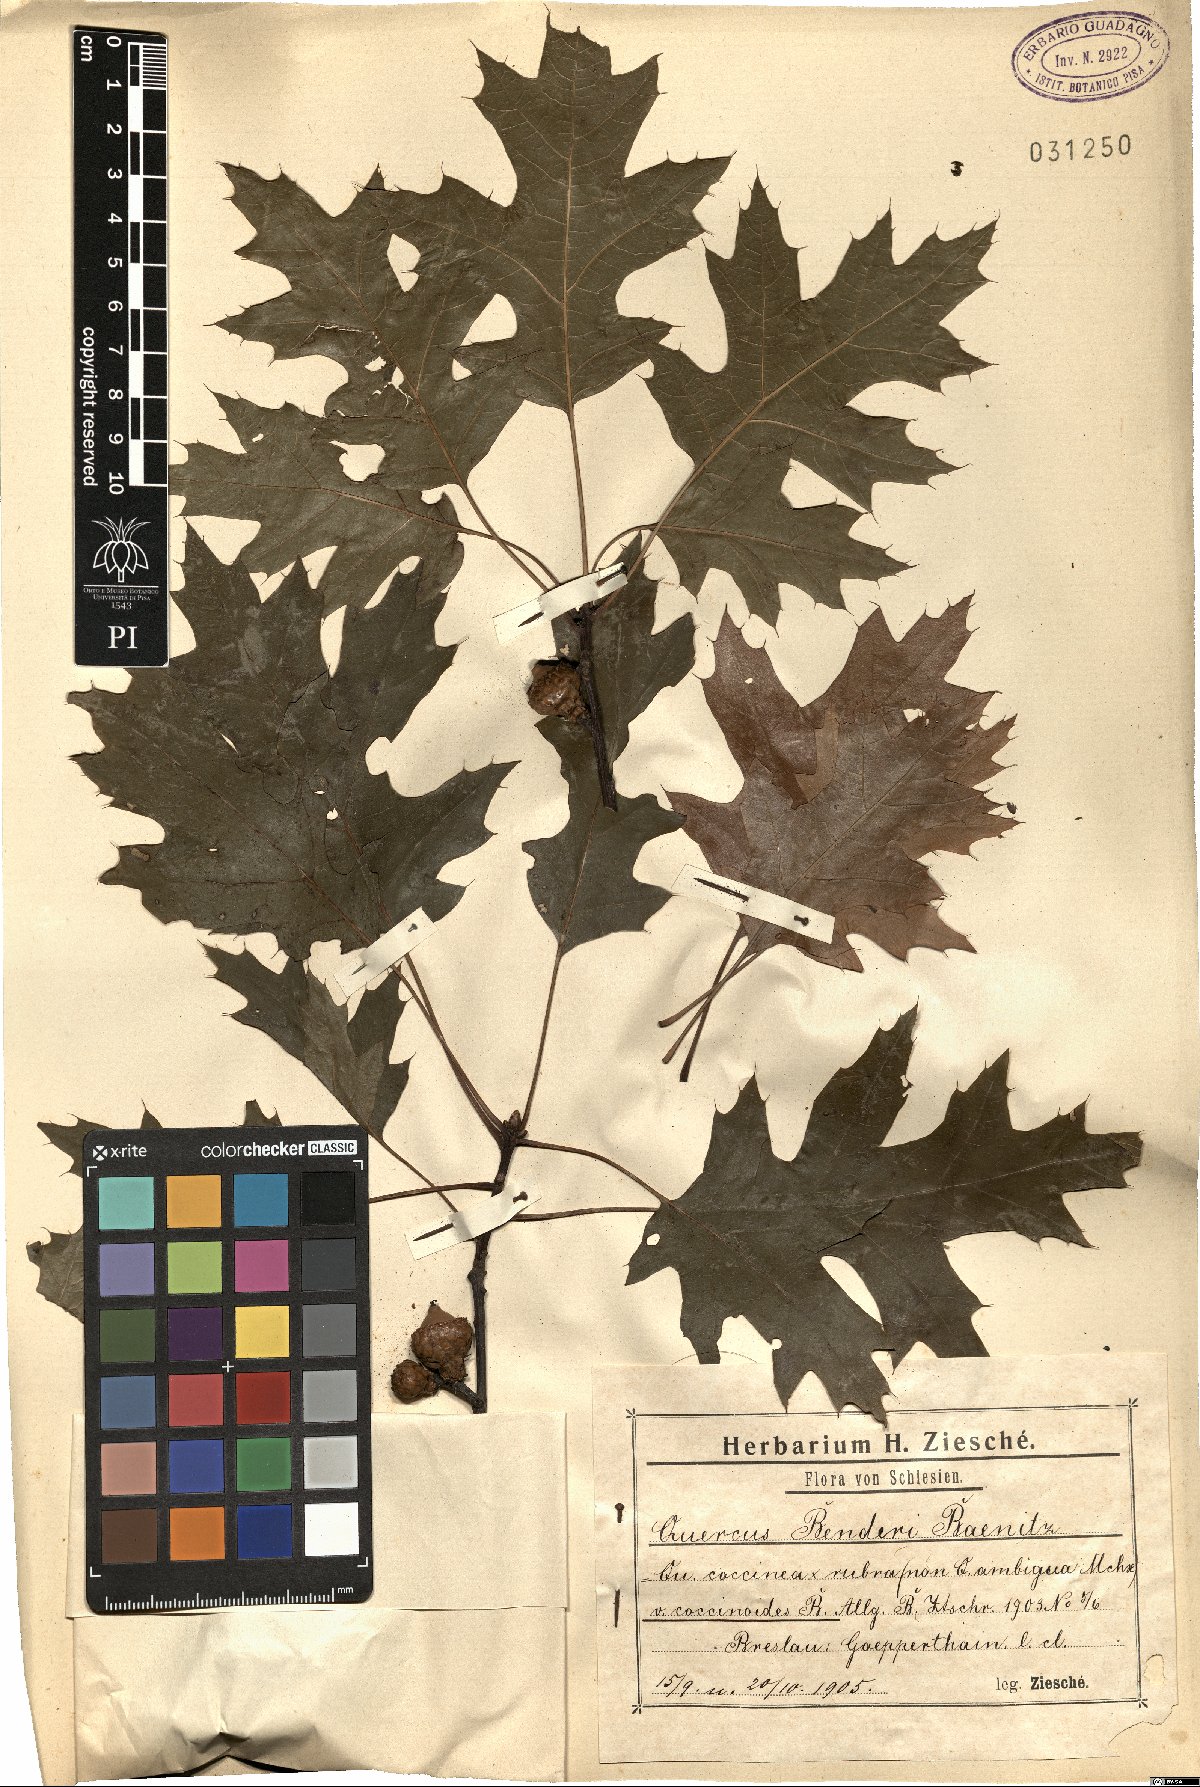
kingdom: Plantae
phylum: Tracheophyta
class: Magnoliopsida
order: Fagales
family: Fagaceae
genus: Quercus
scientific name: Quercus benderi
